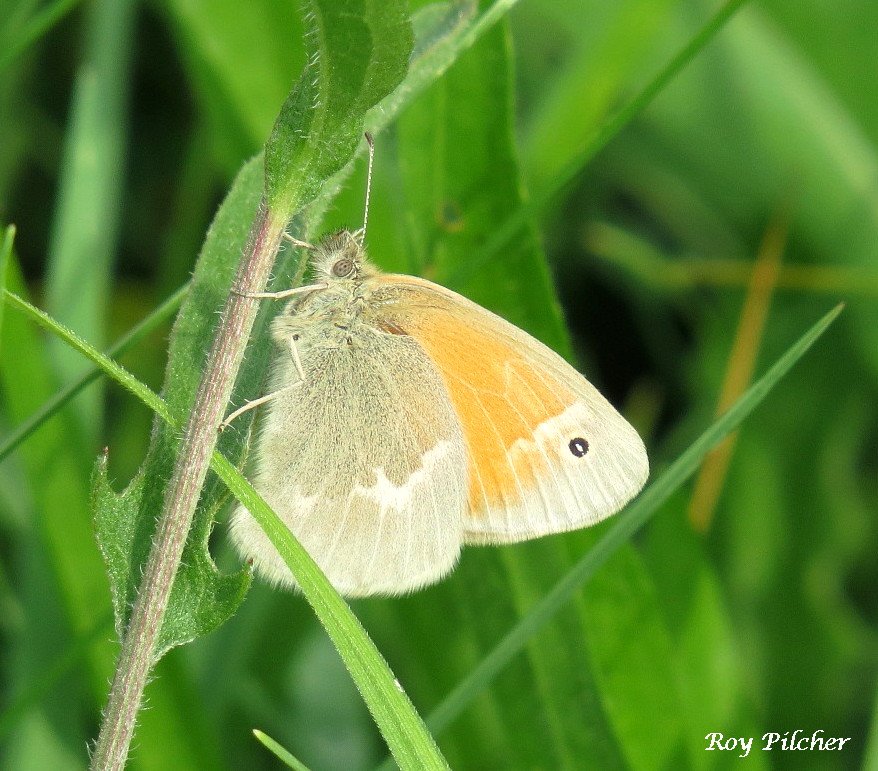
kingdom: Animalia
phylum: Arthropoda
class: Insecta
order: Lepidoptera
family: Nymphalidae
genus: Coenonympha
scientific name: Coenonympha tullia
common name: Large Heath
